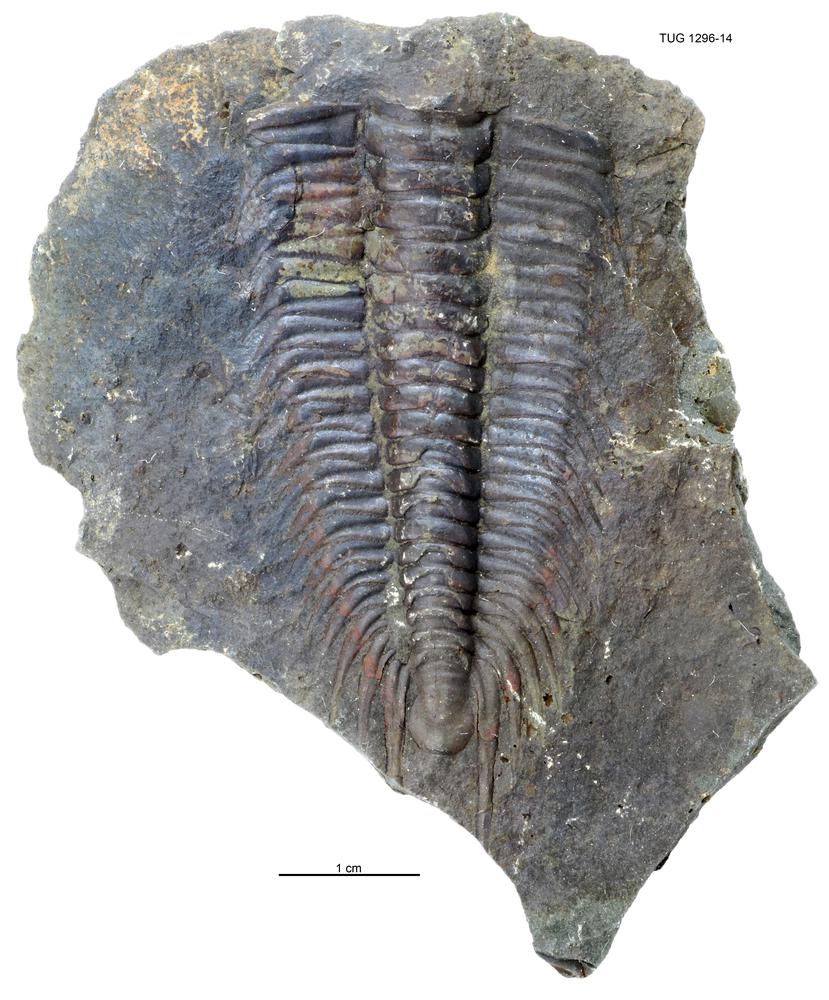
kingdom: Animalia
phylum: Arthropoda
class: Trilobita
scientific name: Trilobita
